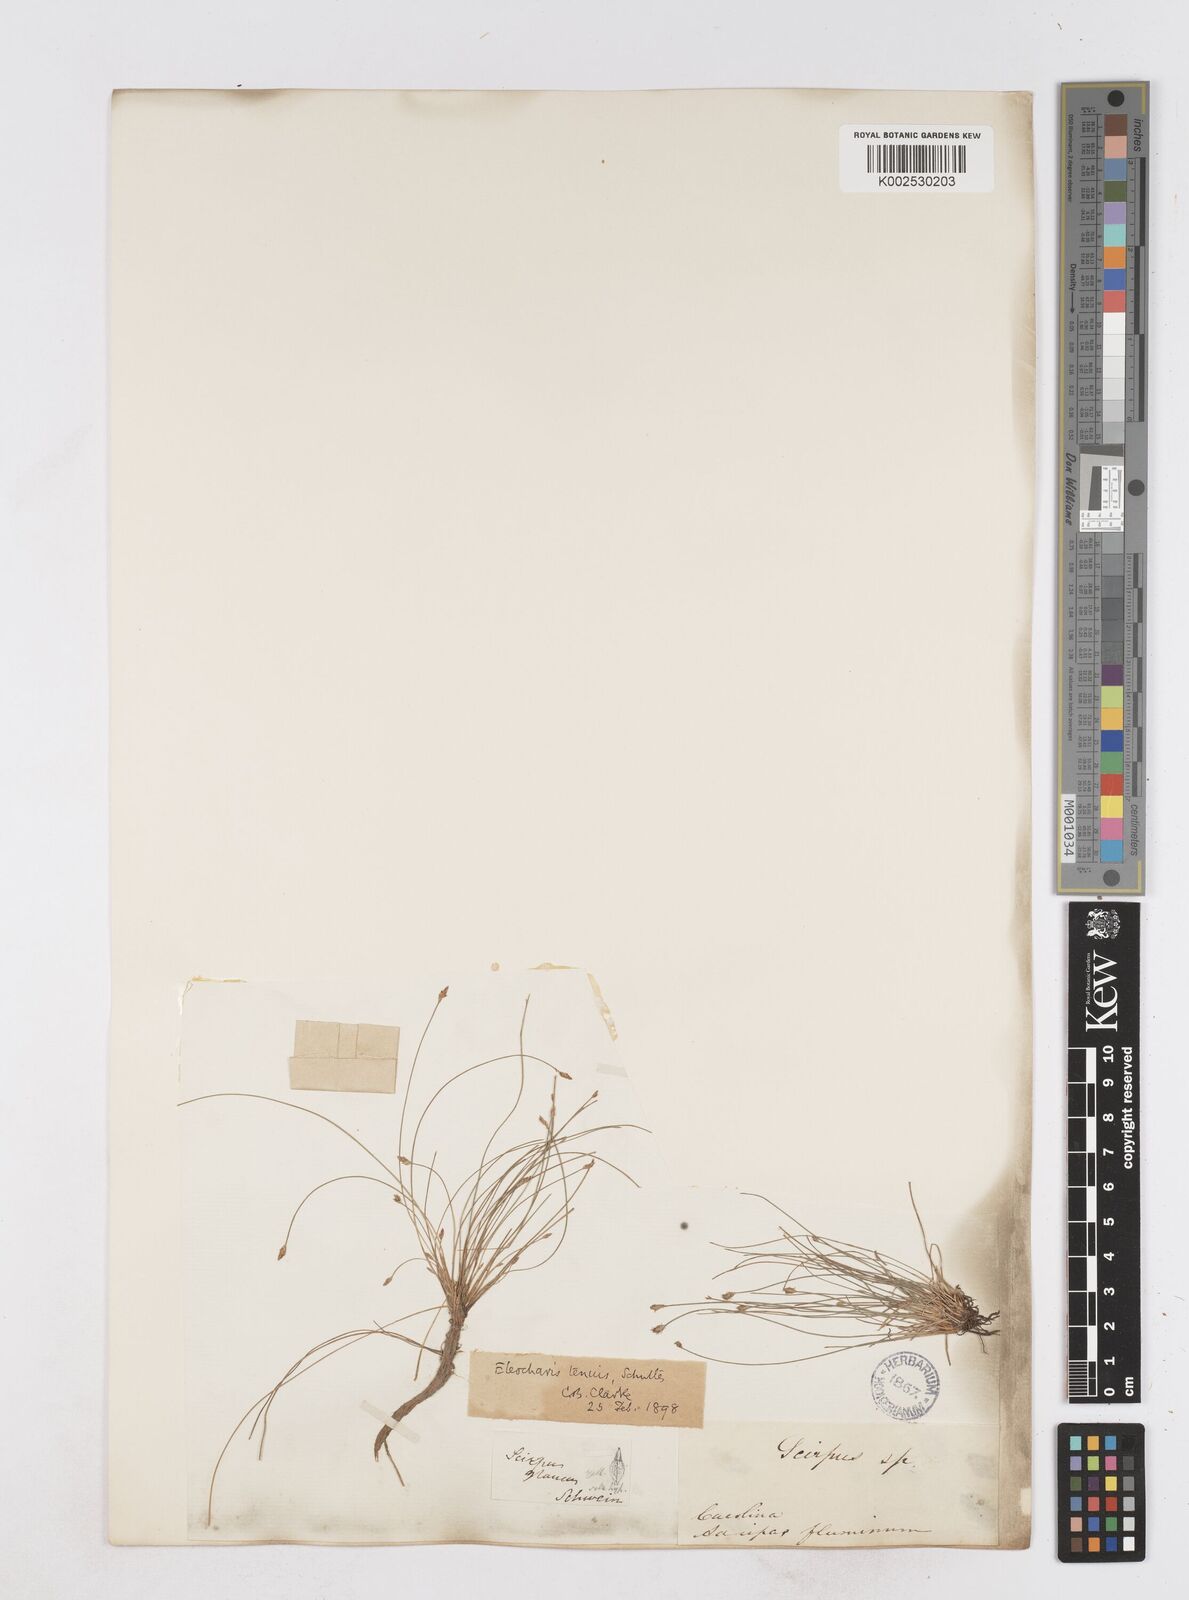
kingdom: Plantae
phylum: Tracheophyta
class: Liliopsida
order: Poales
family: Cyperaceae
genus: Eleocharis
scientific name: Eleocharis tenuis
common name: Dog's hair
